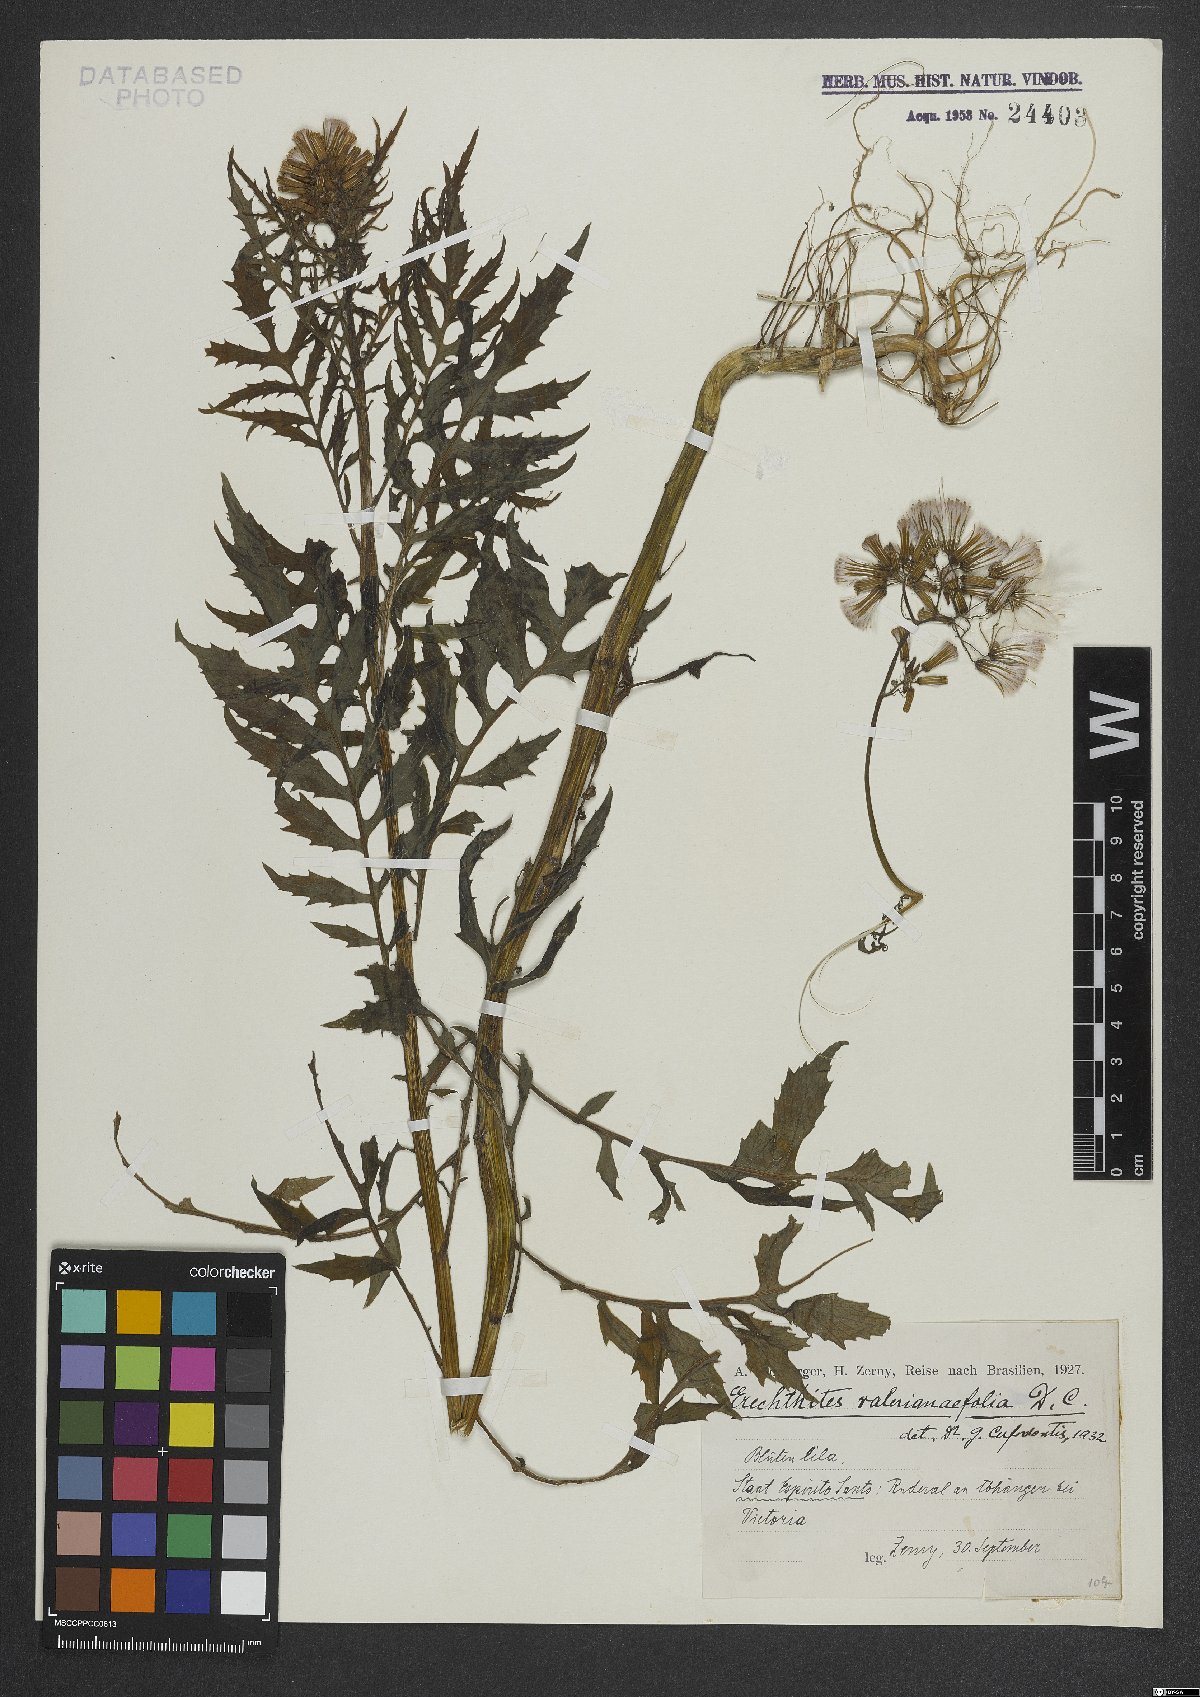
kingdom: Plantae
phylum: Tracheophyta
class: Magnoliopsida
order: Asterales
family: Asteraceae
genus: Erechtites
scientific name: Erechtites valerianifolius
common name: Tropical burnweed
